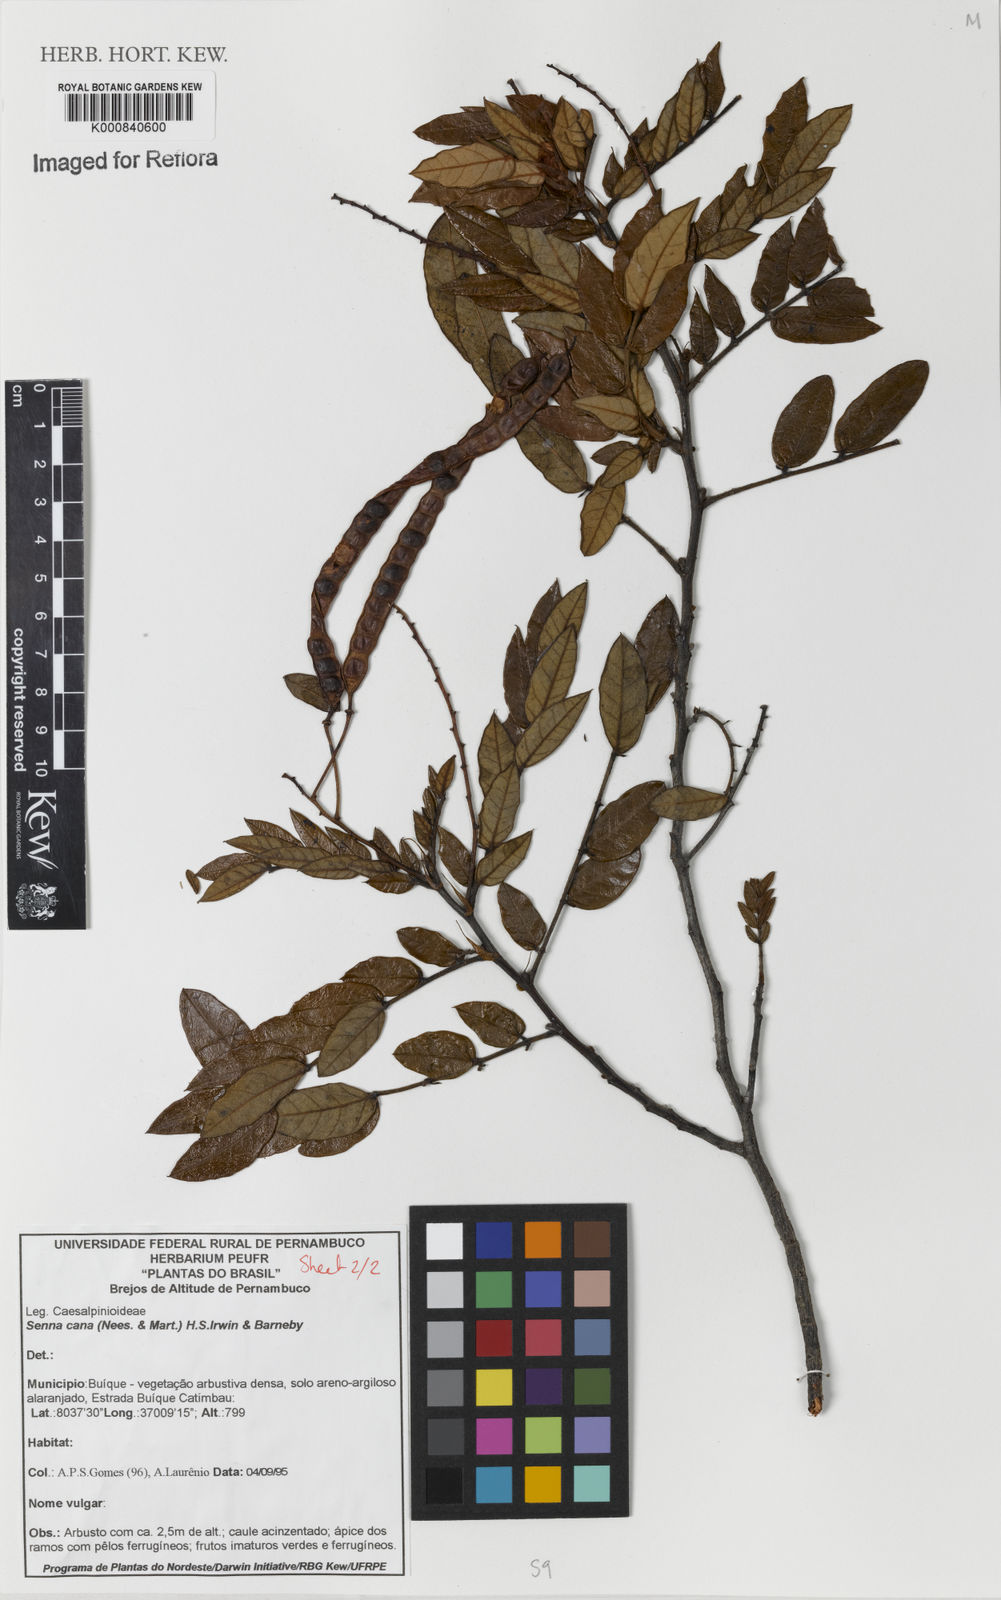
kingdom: Plantae
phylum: Tracheophyta
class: Magnoliopsida
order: Fabales
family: Fabaceae
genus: Senna
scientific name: Senna cana
